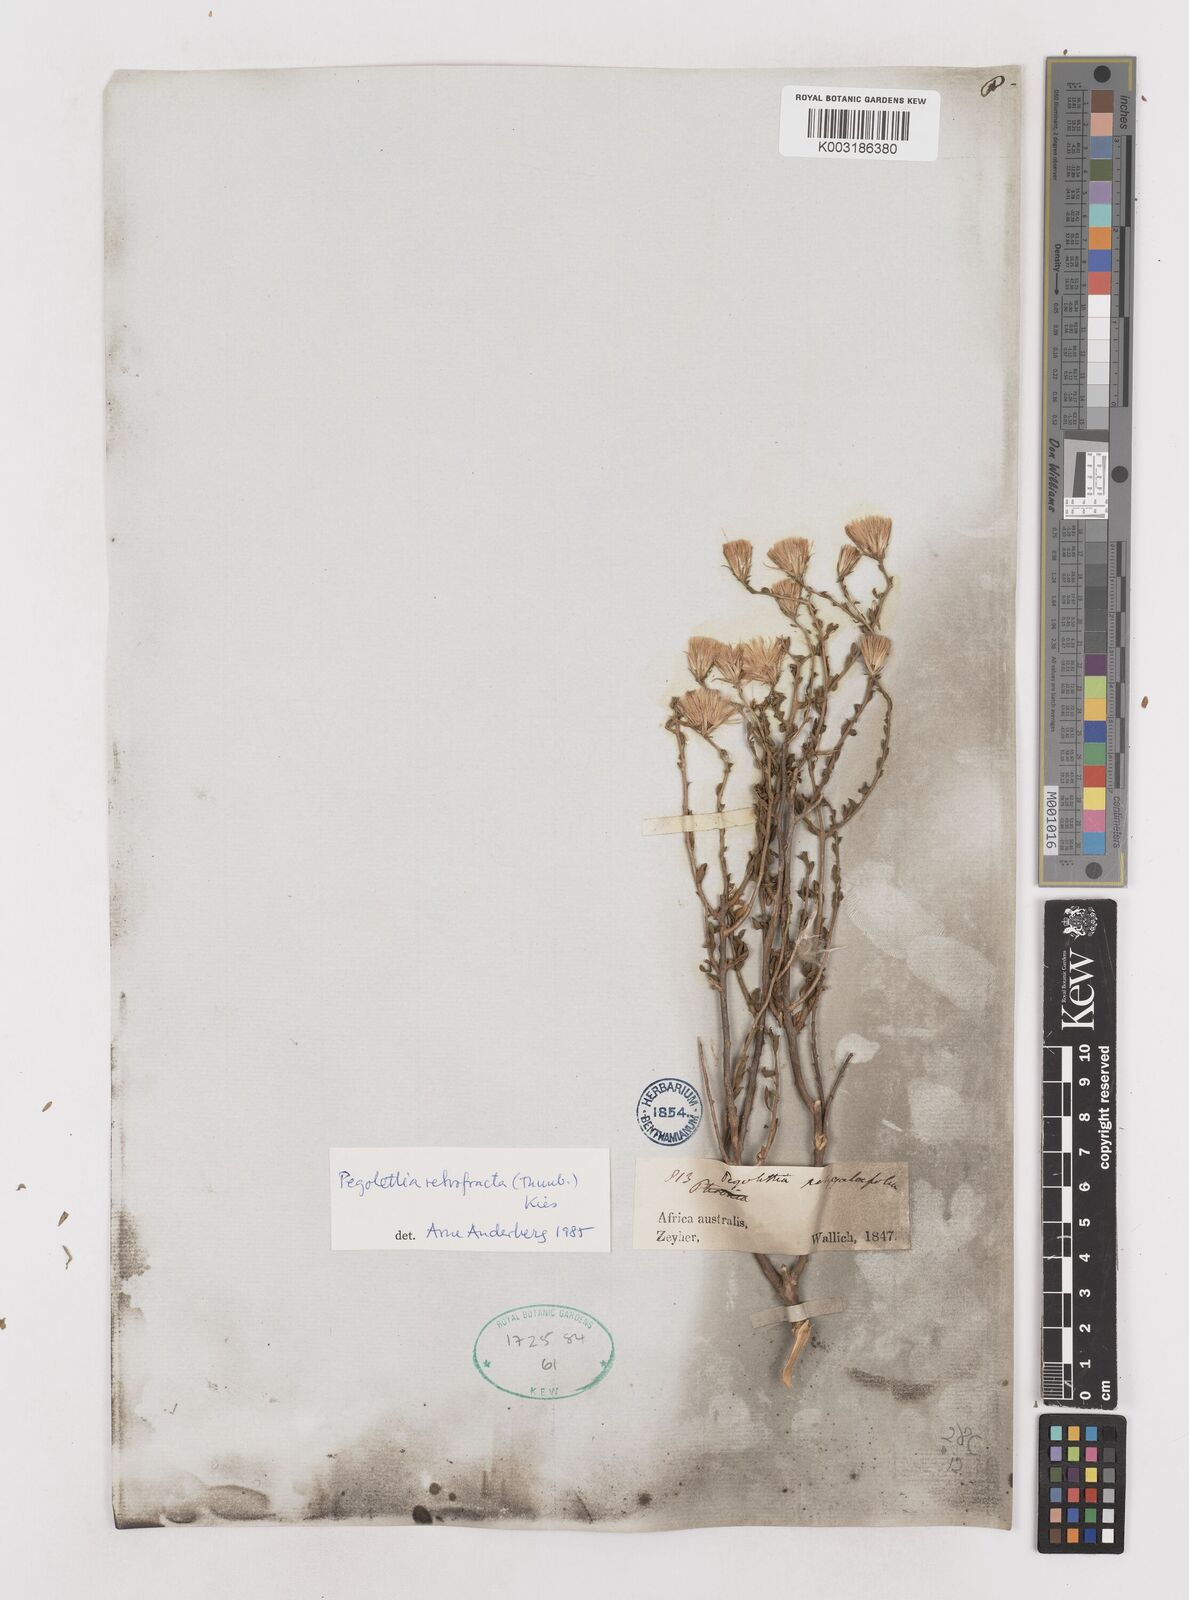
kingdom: Plantae
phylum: Tracheophyta
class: Magnoliopsida
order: Asterales
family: Asteraceae
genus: Pegolettia
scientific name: Pegolettia retrofracta
